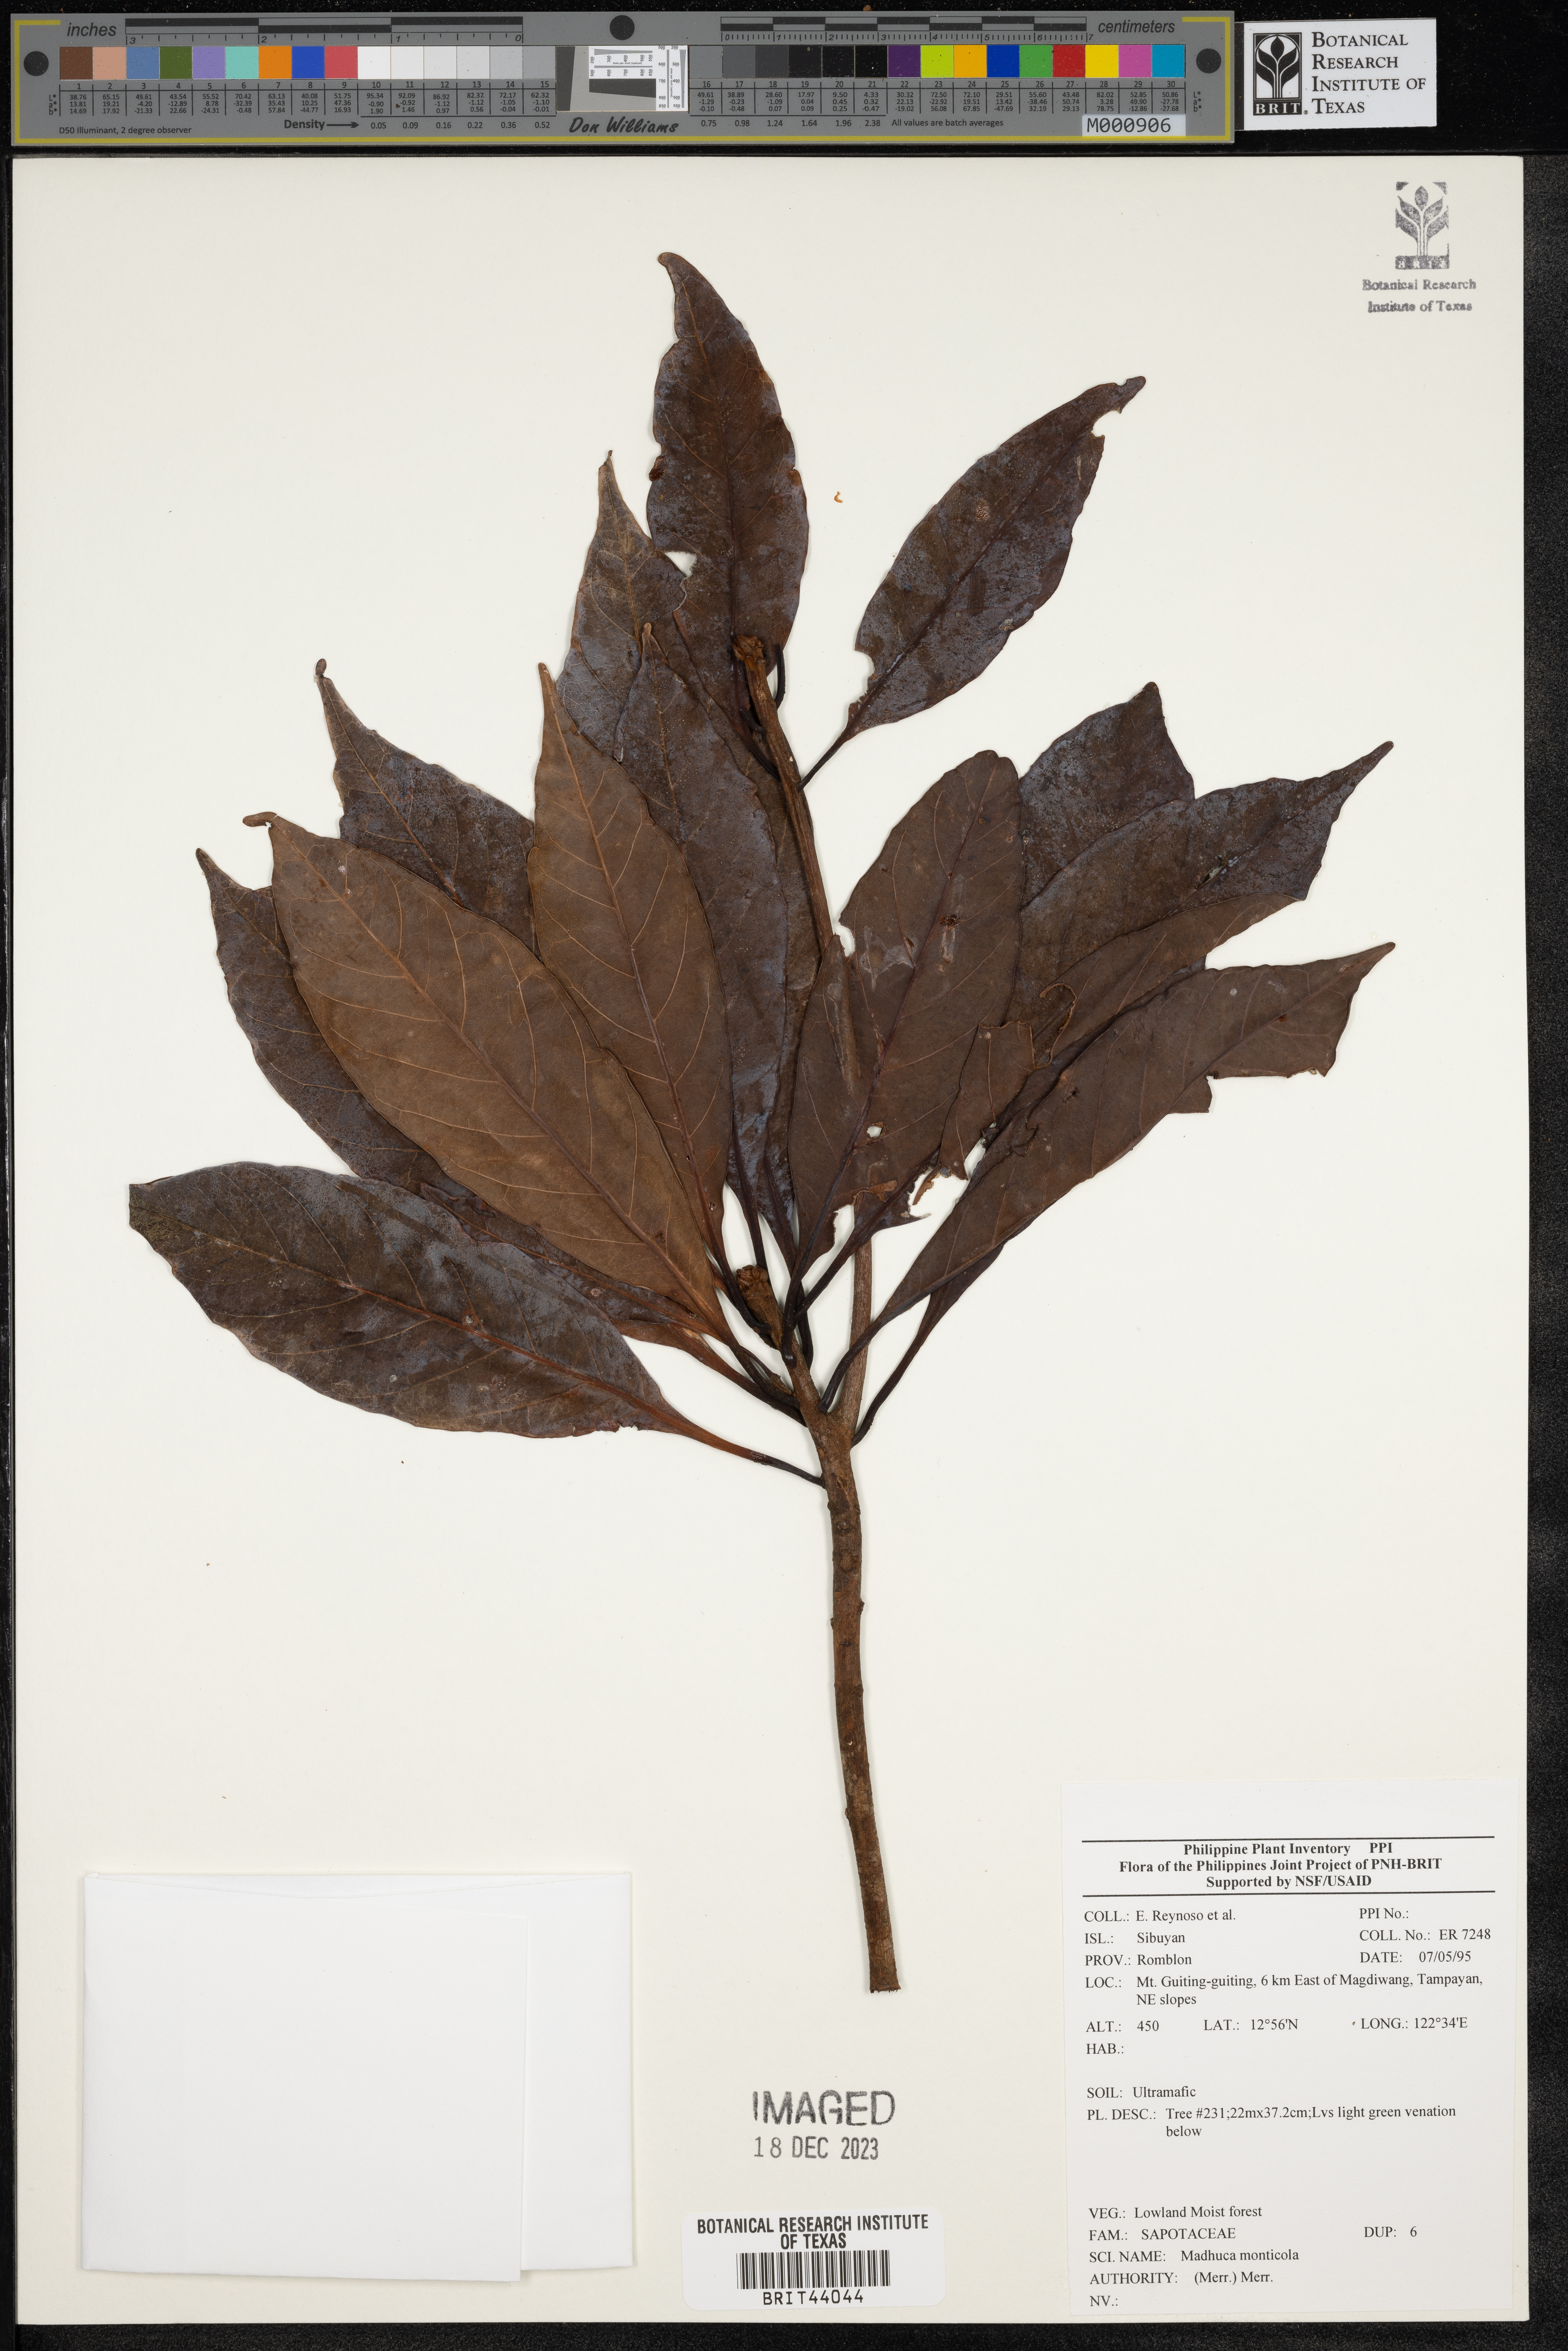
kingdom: Plantae
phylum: Tracheophyta
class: Magnoliopsida
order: Ericales
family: Sapotaceae
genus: Madhuca
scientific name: Madhuca
